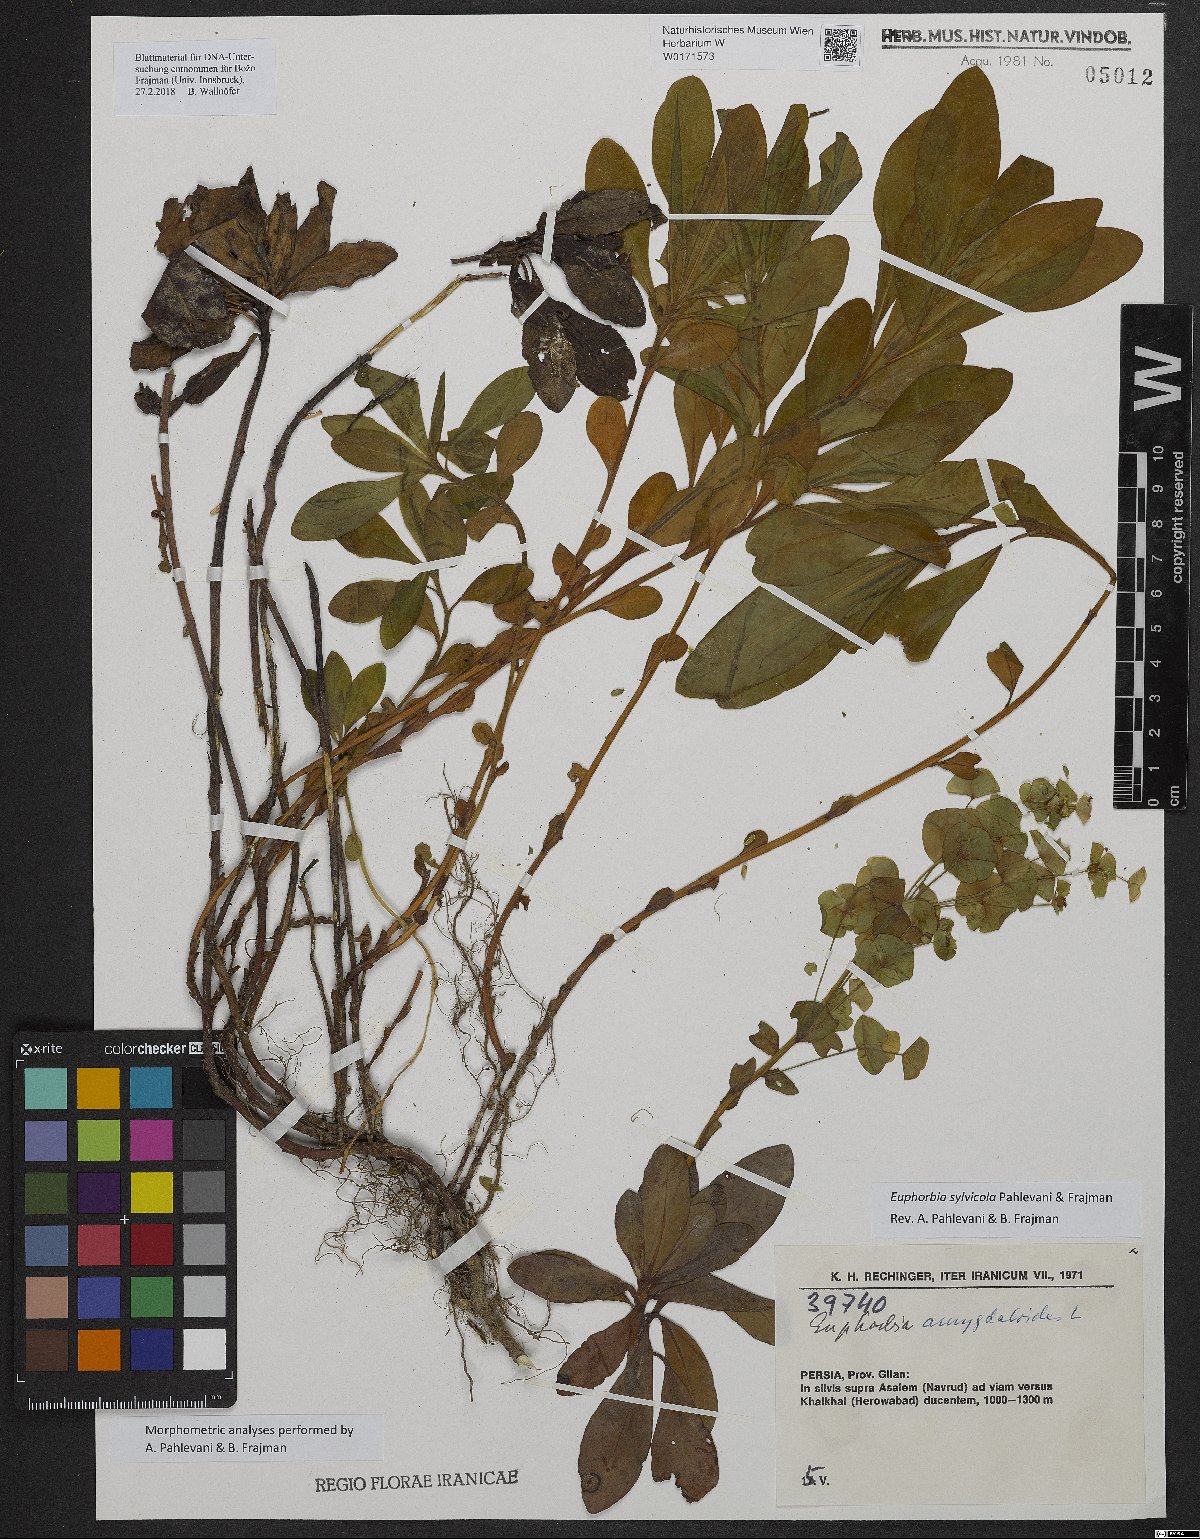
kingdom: Plantae
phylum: Tracheophyta
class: Magnoliopsida
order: Malpighiales
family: Euphorbiaceae
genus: Euphorbia
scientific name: Euphorbia juttae
